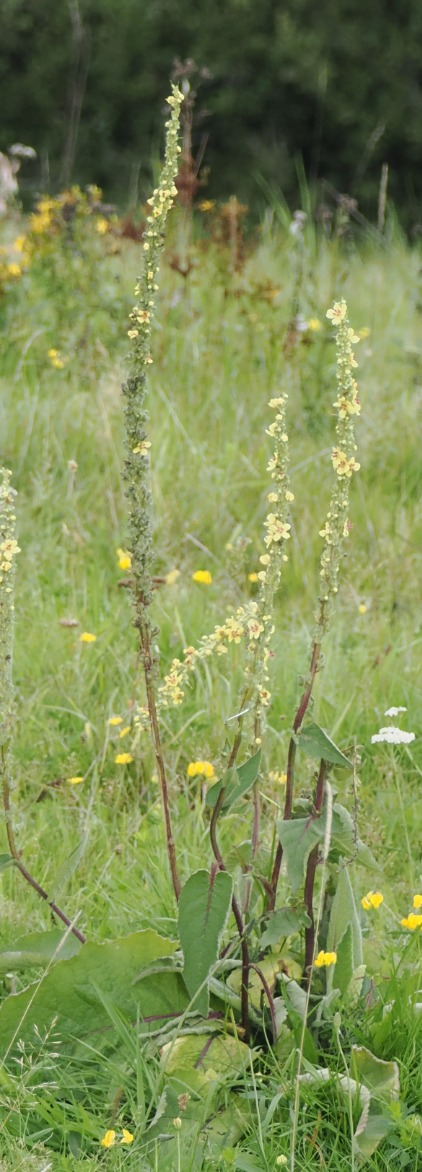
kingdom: Plantae
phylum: Tracheophyta
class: Magnoliopsida
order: Lamiales
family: Scrophulariaceae
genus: Verbascum
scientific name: Verbascum nigrum
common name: Mørk kongelys
